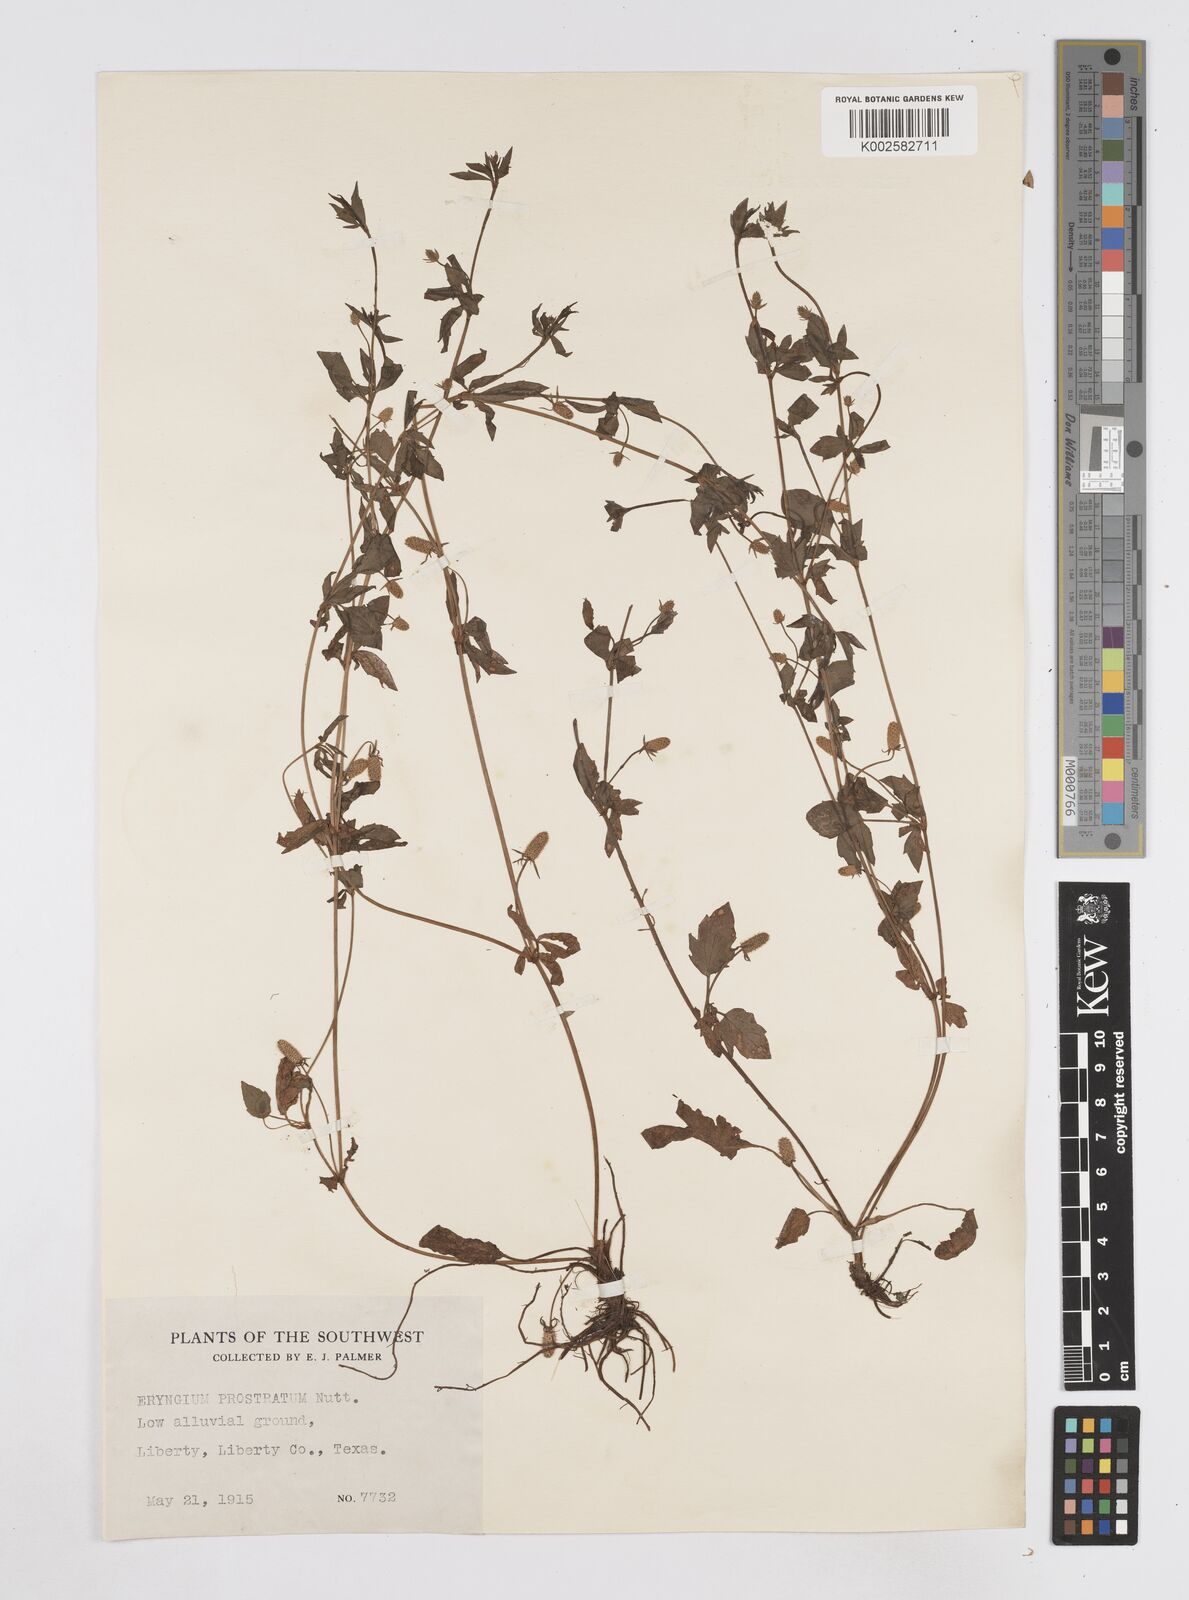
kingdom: Plantae
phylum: Tracheophyta
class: Magnoliopsida
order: Apiales
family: Apiaceae
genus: Eryngium
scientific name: Eryngium prostratum
